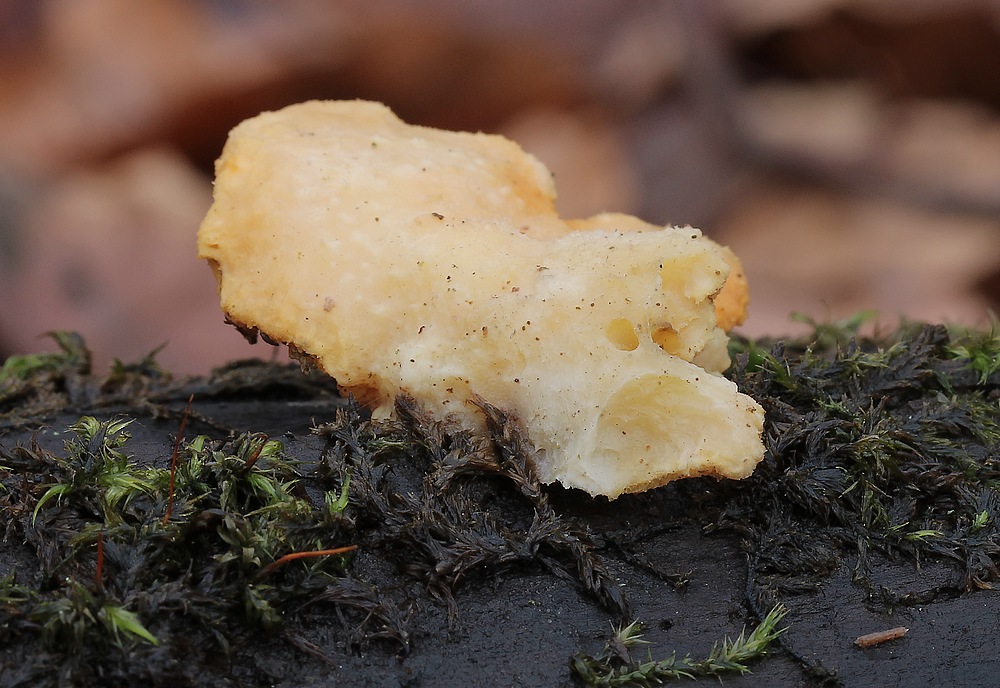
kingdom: Fungi
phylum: Ascomycota
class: Sordariomycetes
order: Hypocreales
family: Hypocreaceae
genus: Protocrea
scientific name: Protocrea pallida
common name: bleg kødkerne
